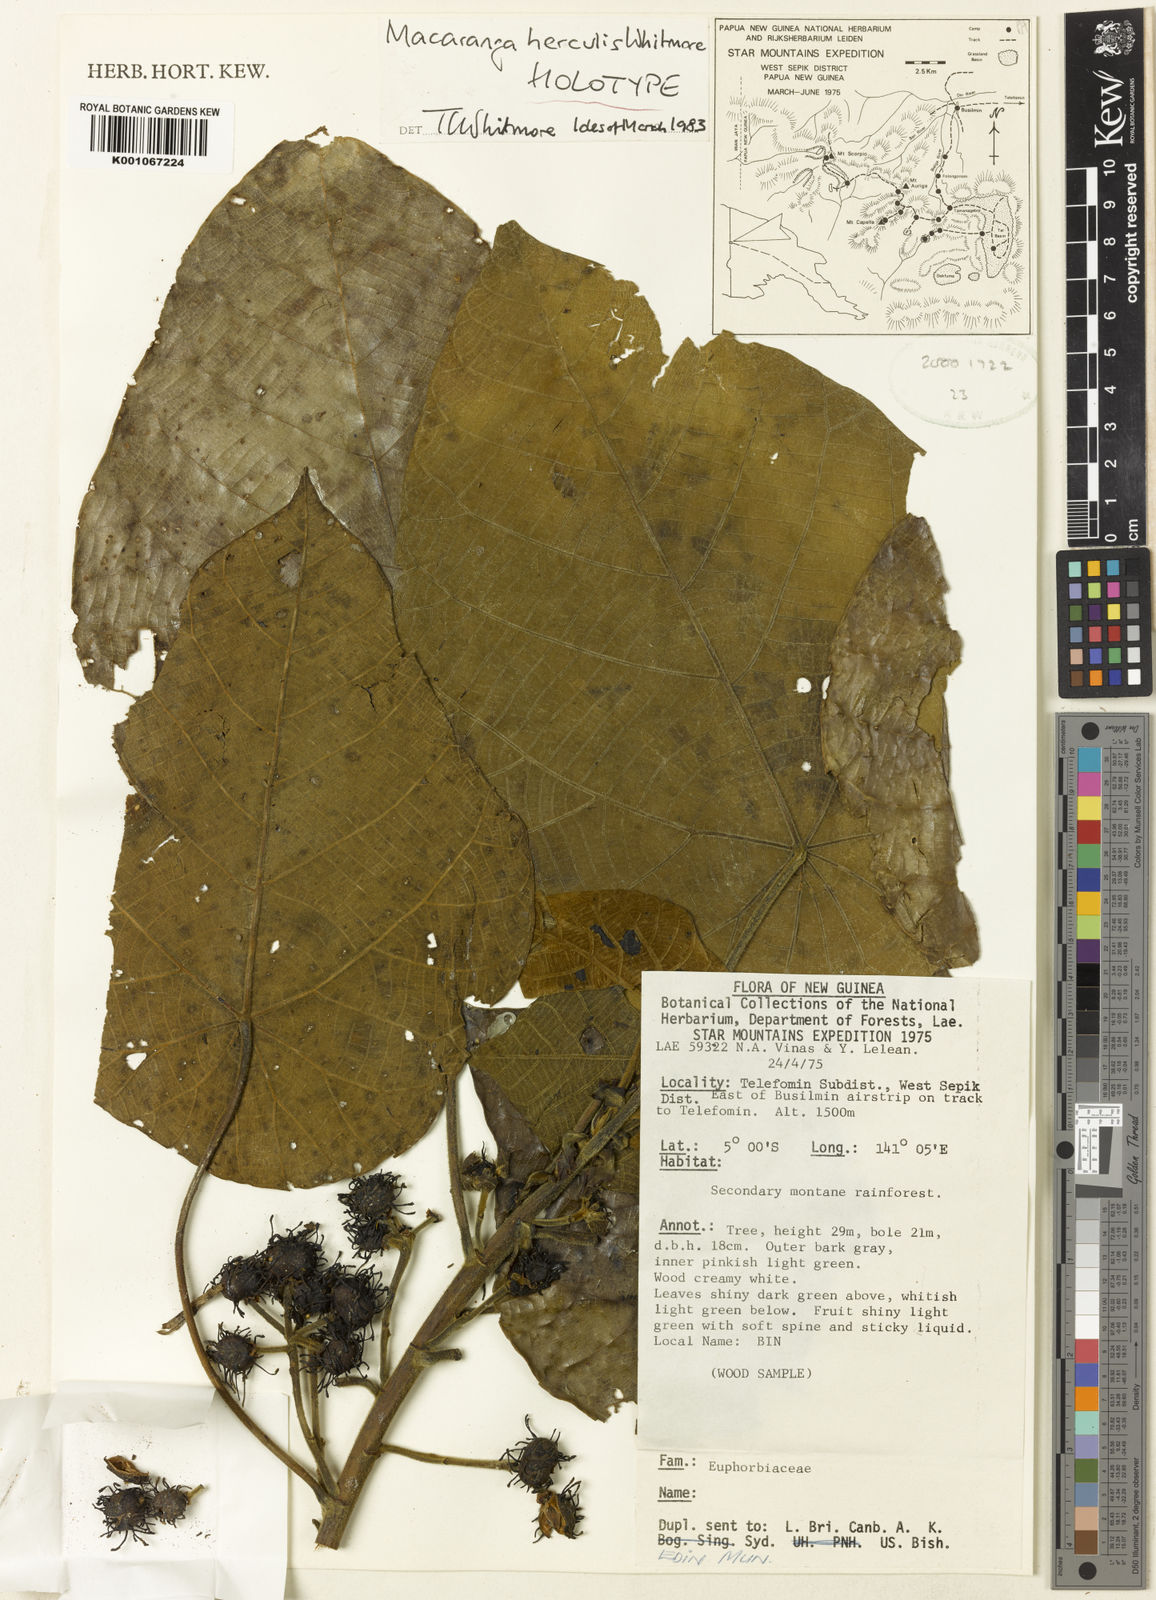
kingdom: Plantae
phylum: Tracheophyta
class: Magnoliopsida
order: Malpighiales
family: Euphorbiaceae
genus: Macaranga
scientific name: Macaranga herculis
